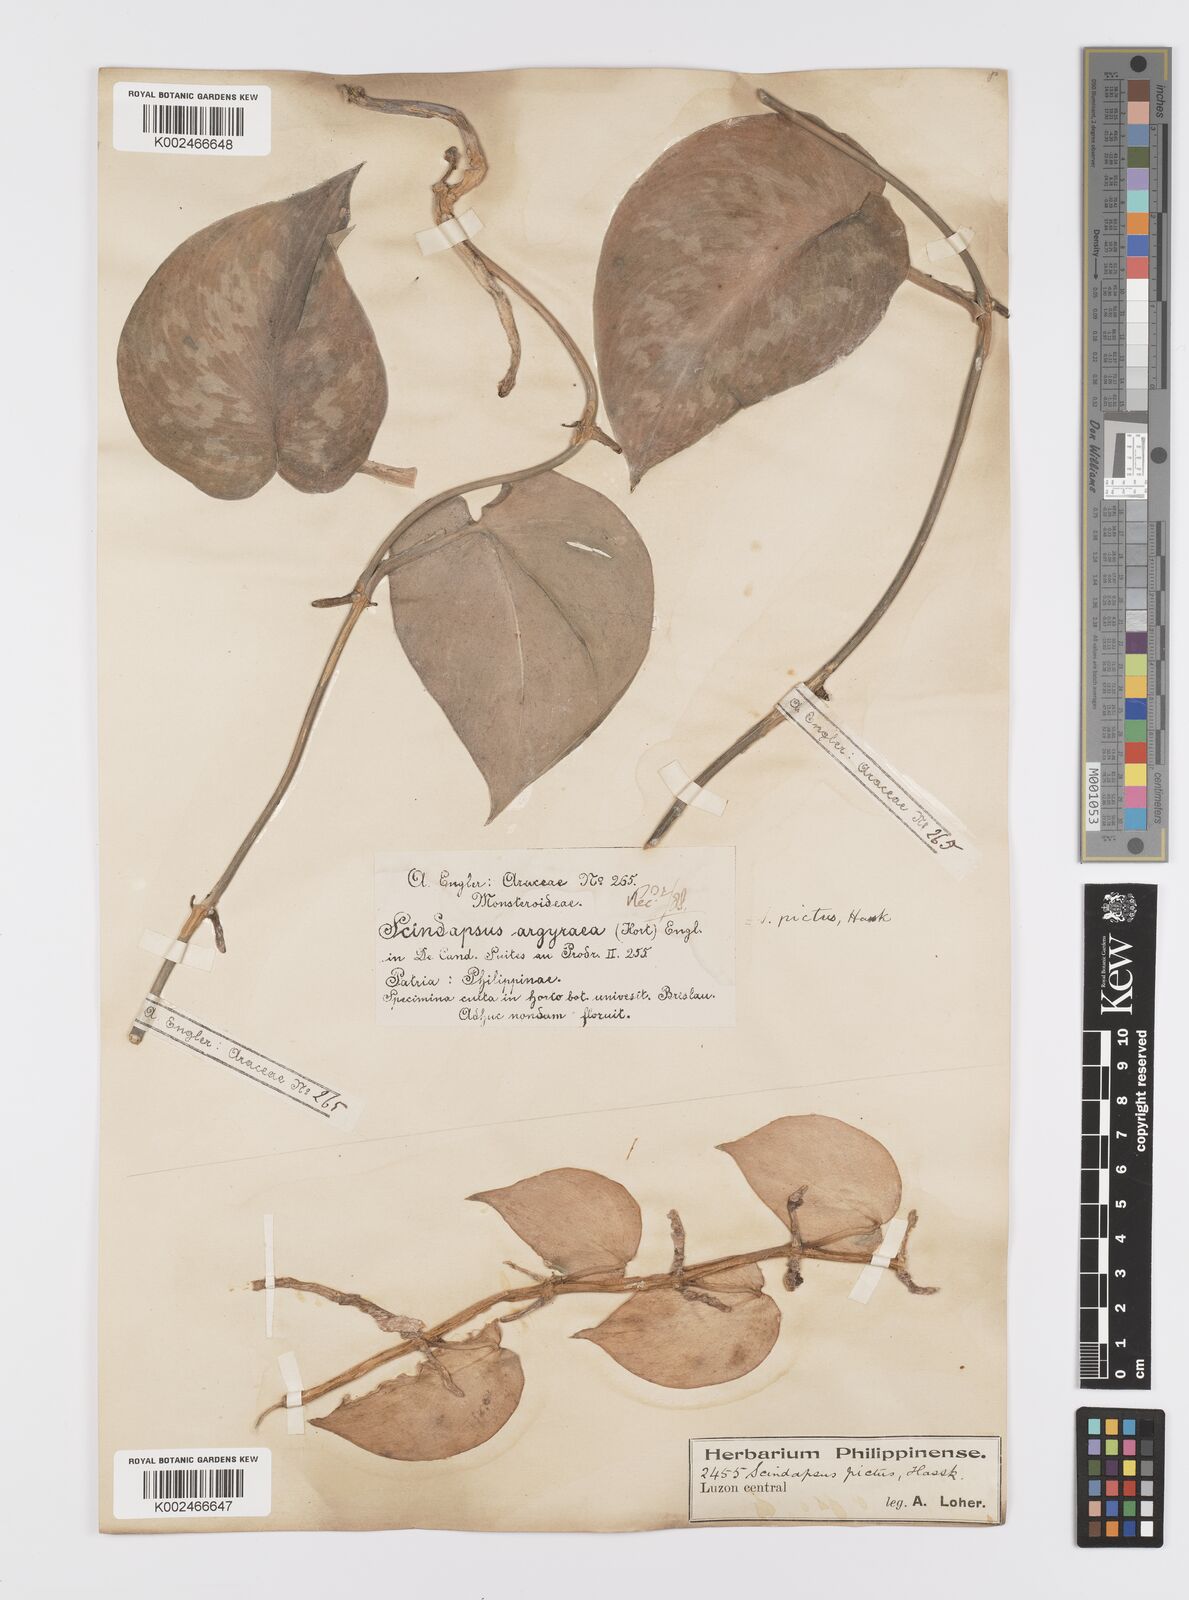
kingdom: Plantae
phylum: Tracheophyta
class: Liliopsida
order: Alismatales
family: Araceae
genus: Scindapsus
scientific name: Scindapsus pictus
